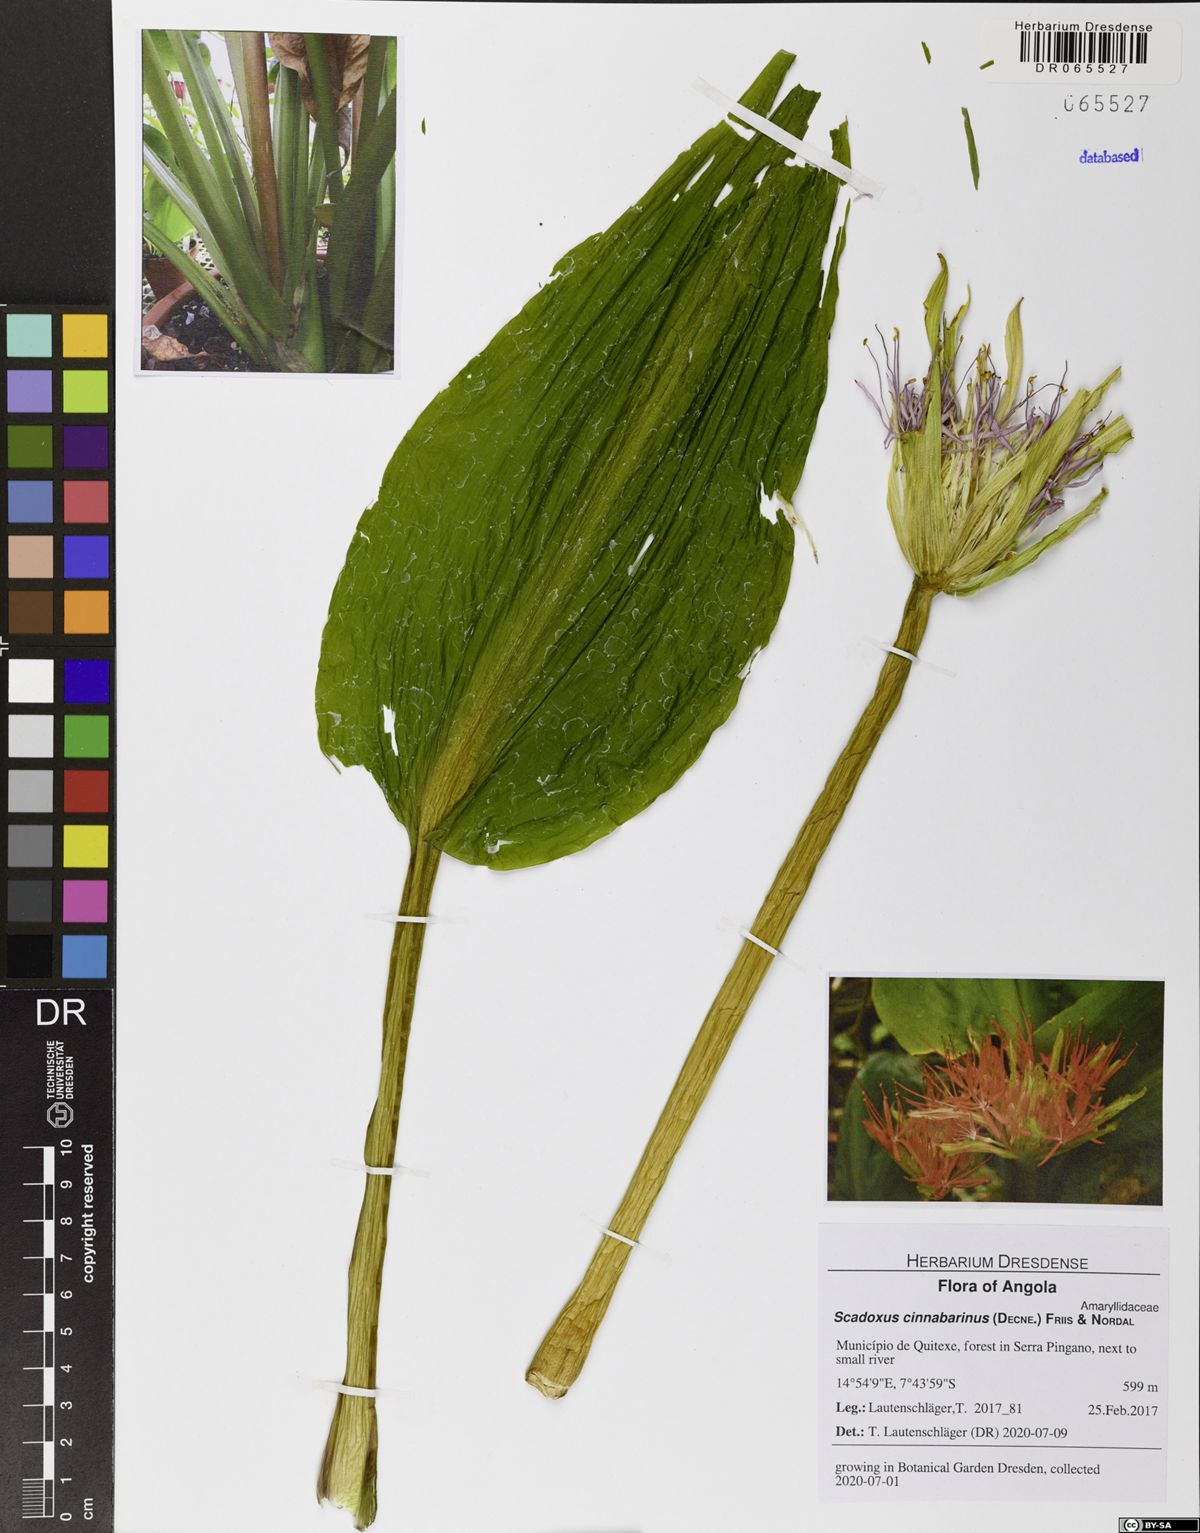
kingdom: Plantae
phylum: Tracheophyta
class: Liliopsida
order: Asparagales
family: Amaryllidaceae
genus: Scadoxus
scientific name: Scadoxus cinnabarinus
